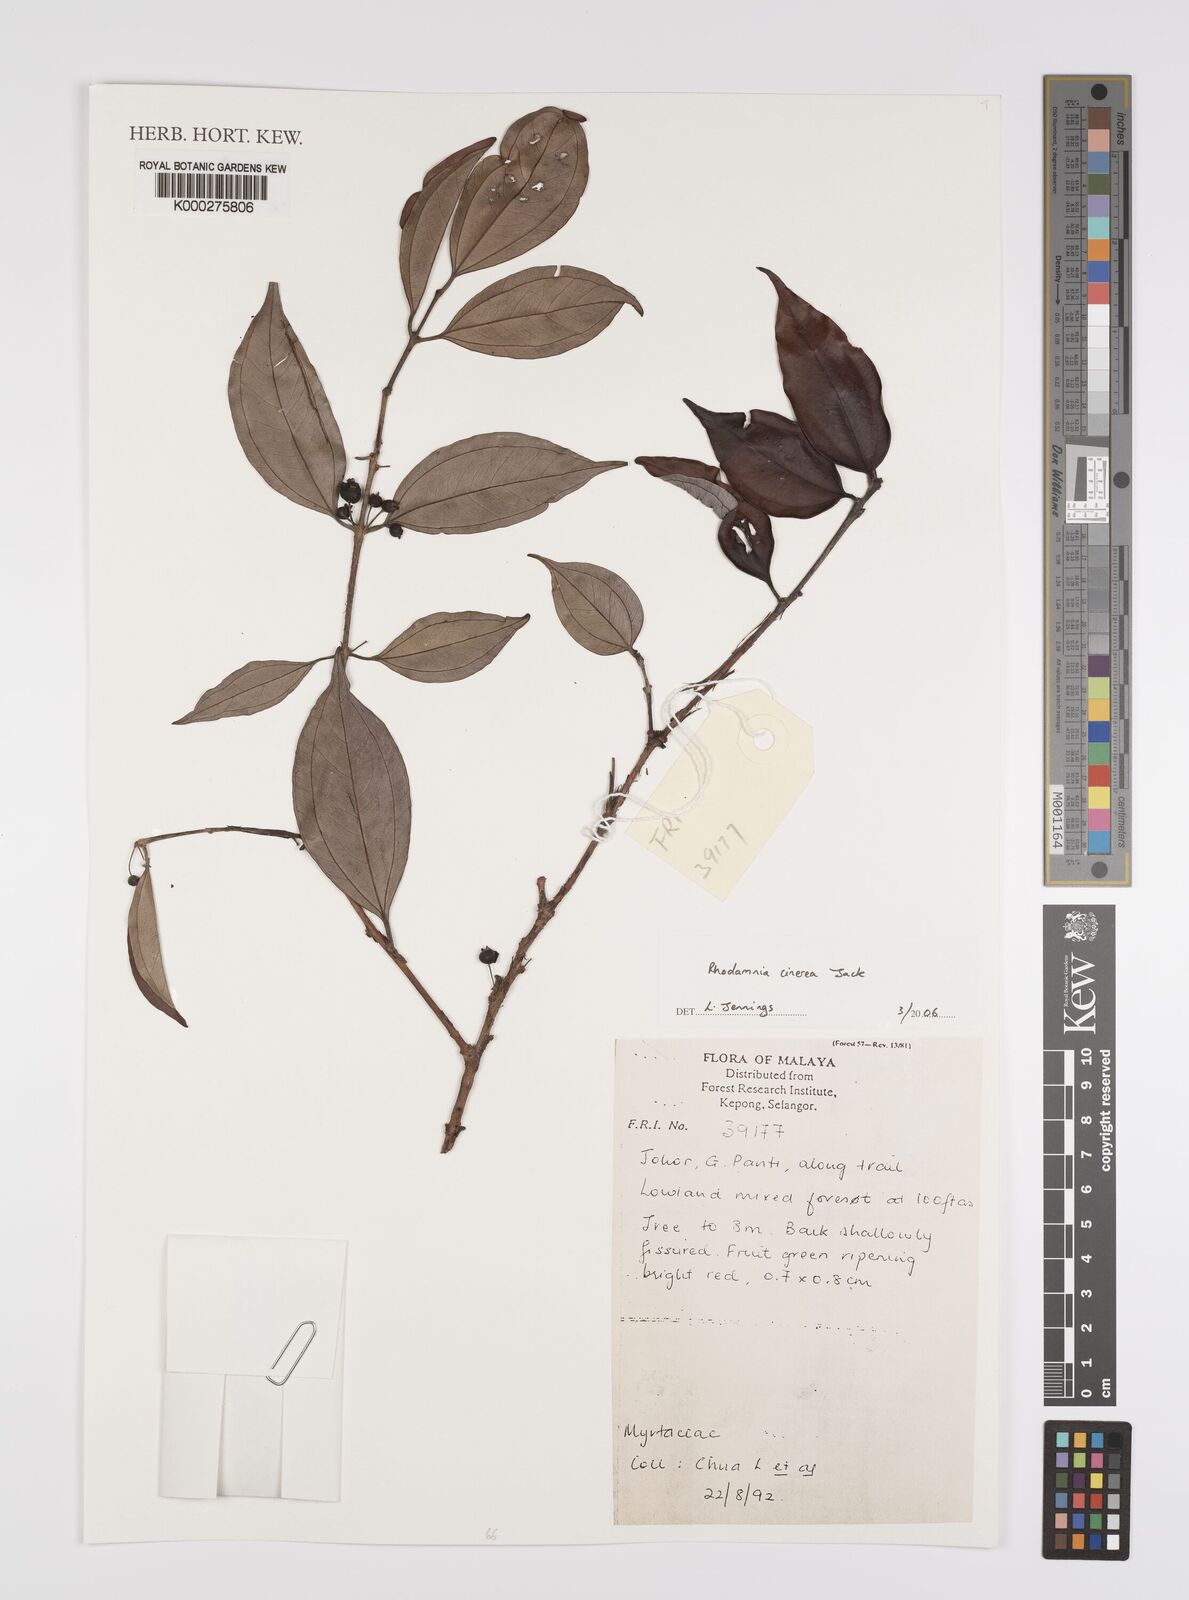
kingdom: Plantae
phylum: Tracheophyta
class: Magnoliopsida
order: Myrtales
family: Myrtaceae
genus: Rhodamnia
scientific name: Rhodamnia cinerea
